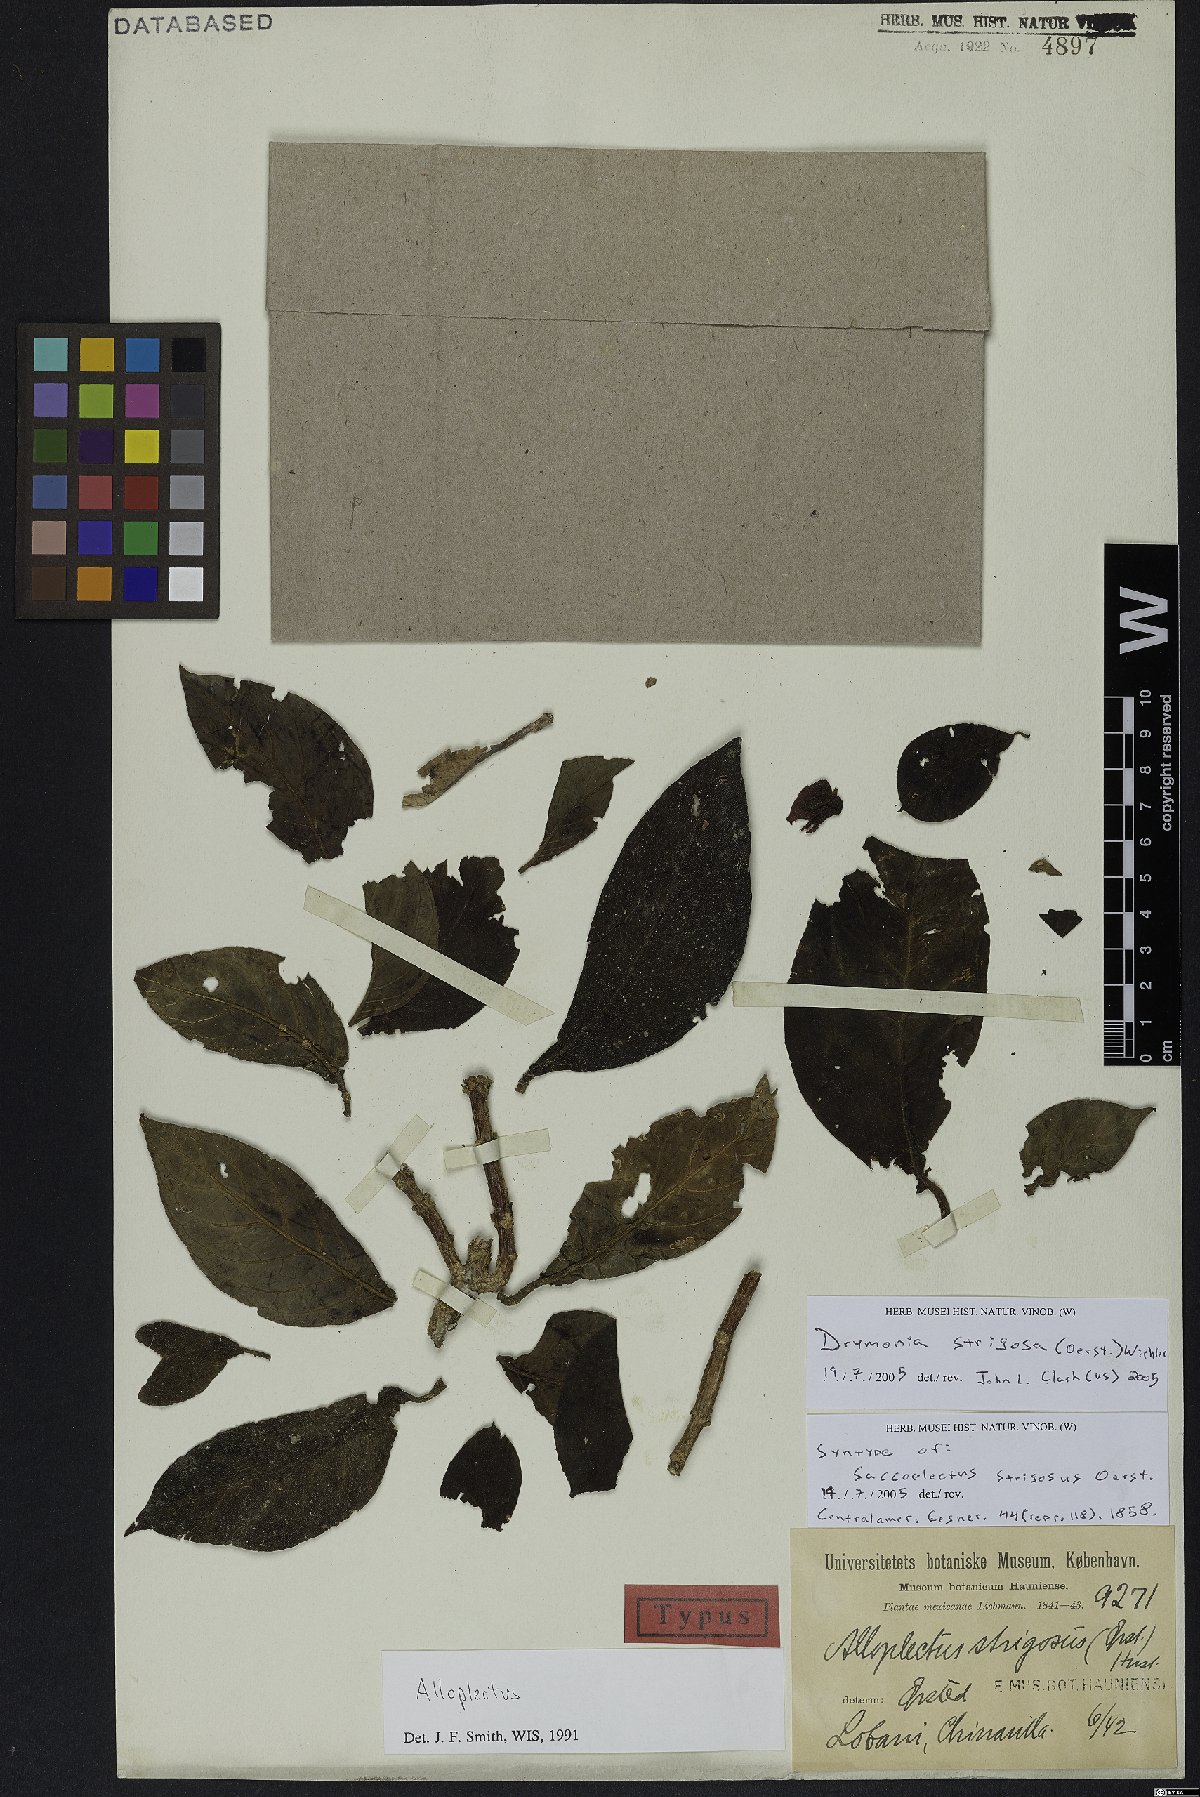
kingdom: Plantae
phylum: Tracheophyta
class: Magnoliopsida
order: Lamiales
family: Gesneriaceae
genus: Drymonia
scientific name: Drymonia strigosa
